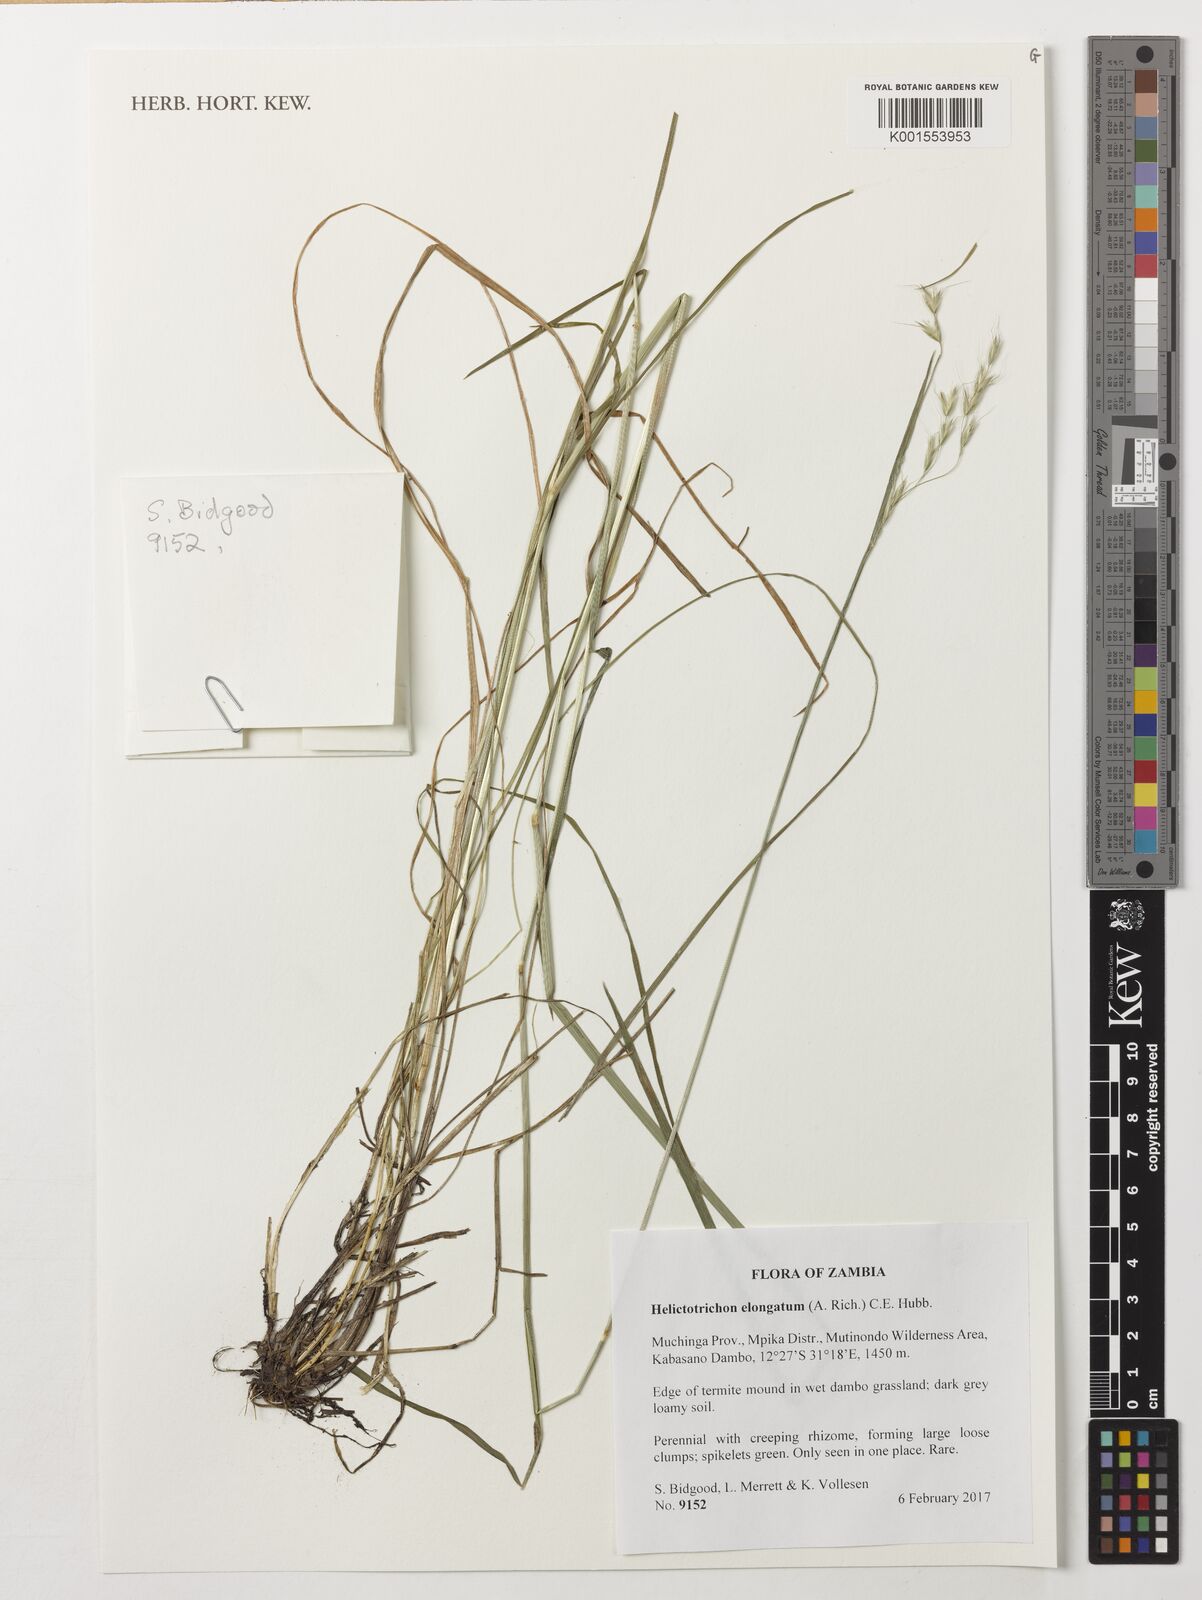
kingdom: Plantae
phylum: Tracheophyta
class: Liliopsida
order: Poales
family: Poaceae
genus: Trisetopsis
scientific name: Trisetopsis elongata
